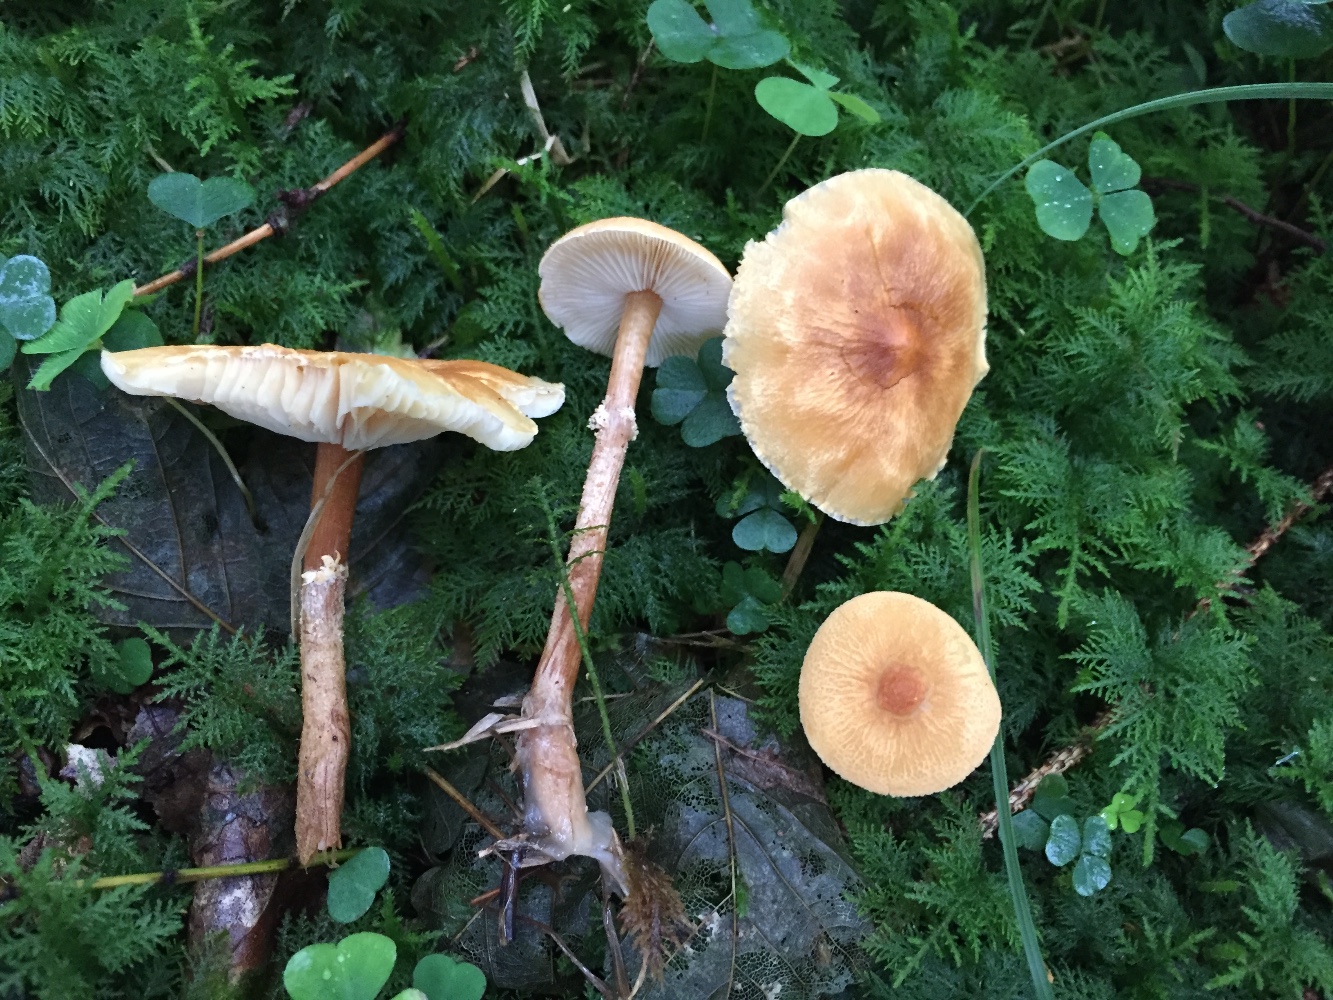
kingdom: Fungi
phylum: Basidiomycota
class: Agaricomycetes
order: Agaricales
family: Tricholomataceae
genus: Cystoderma
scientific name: Cystoderma amianthinum
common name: okkergul grynhat
